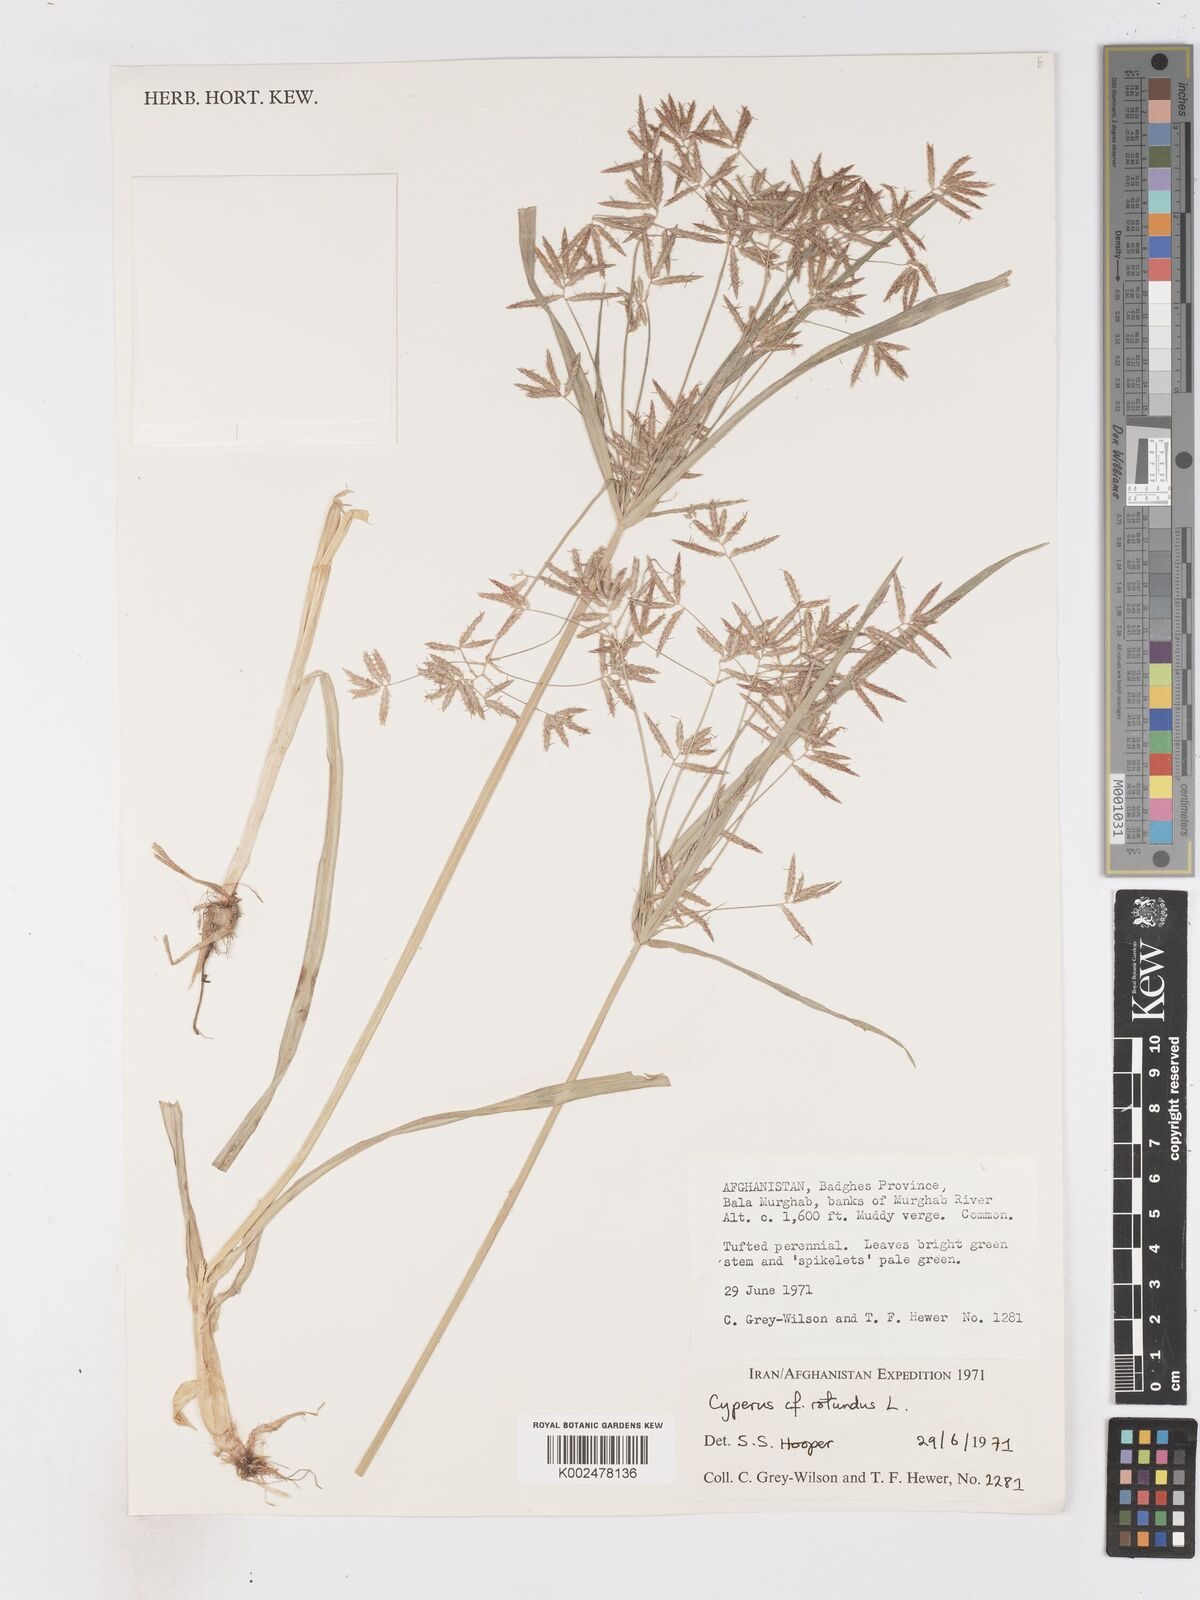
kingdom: Plantae
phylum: Tracheophyta
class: Liliopsida
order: Poales
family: Cyperaceae
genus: Cyperus
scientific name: Cyperus rotundus
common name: Nutgrass
